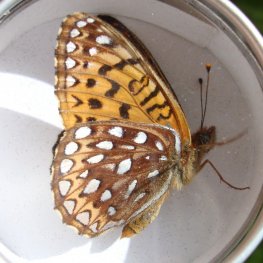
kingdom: Animalia
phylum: Arthropoda
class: Insecta
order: Lepidoptera
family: Nymphalidae
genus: Speyeria
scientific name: Speyeria atlantis
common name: Atlantis Fritillary
